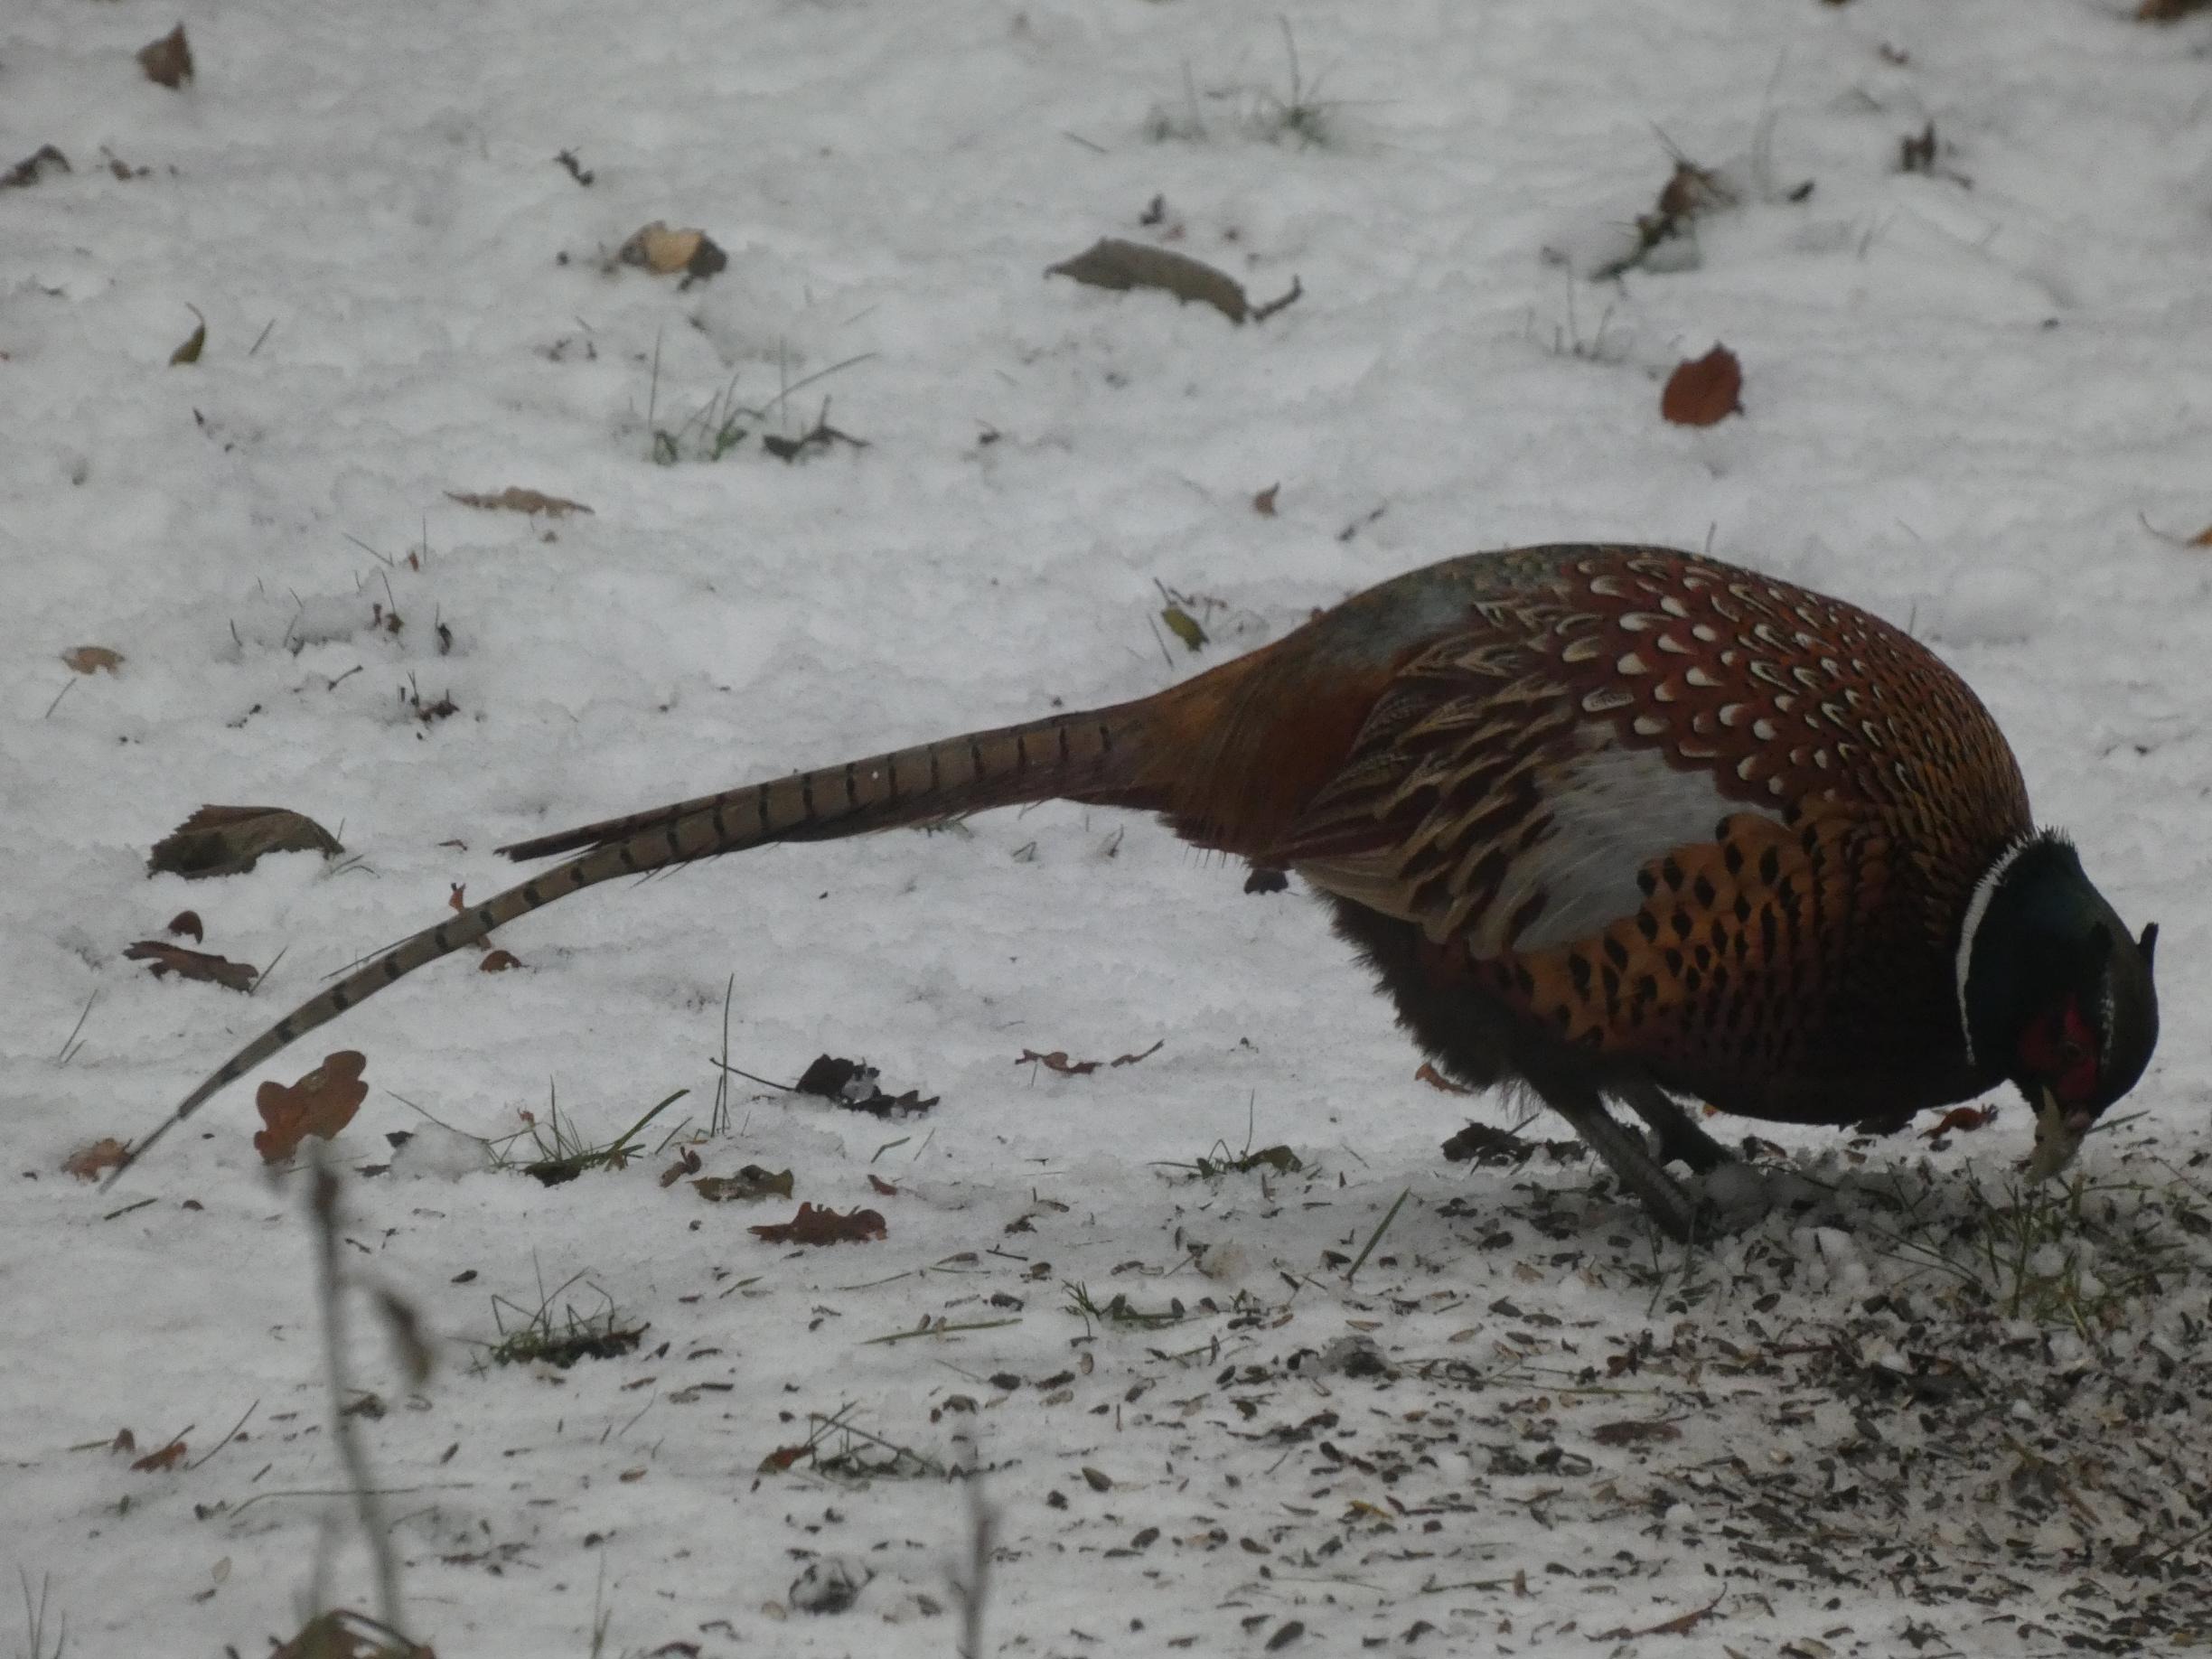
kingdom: Animalia
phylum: Chordata
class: Aves
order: Galliformes
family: Phasianidae
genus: Phasianus
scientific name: Phasianus colchicus
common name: Fasan
